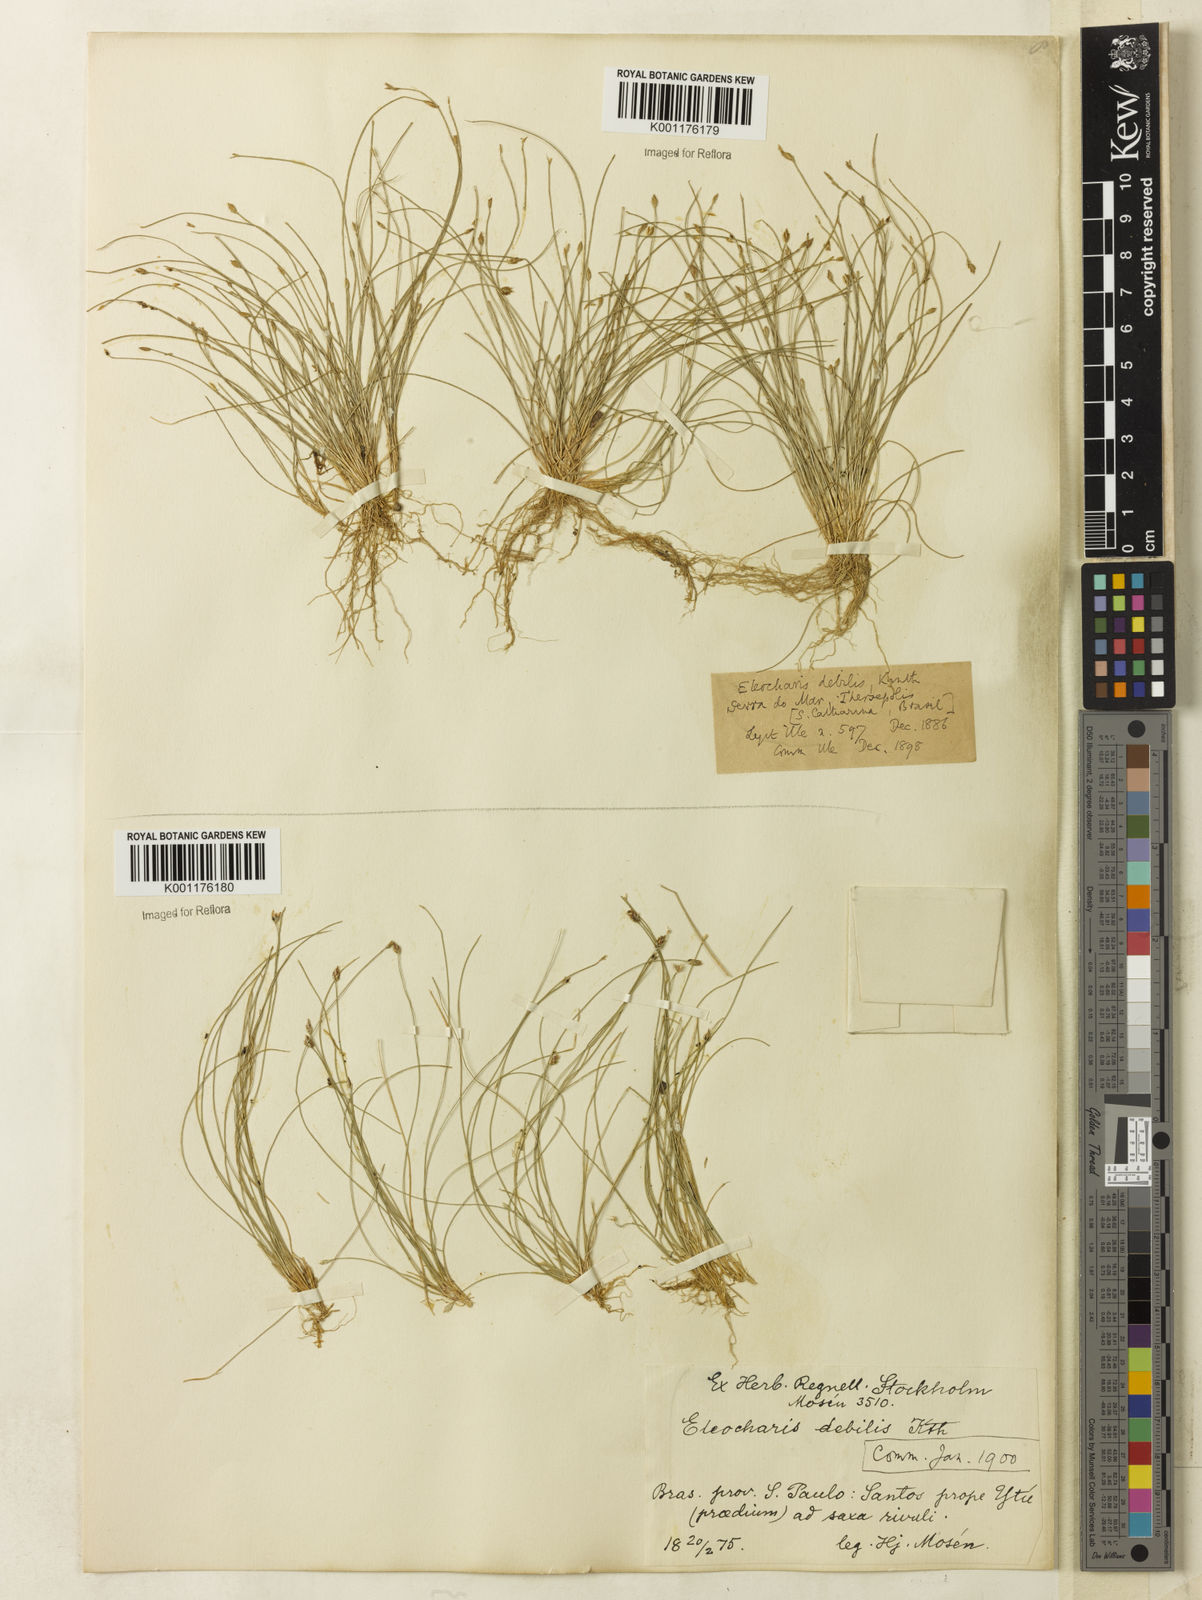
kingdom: Plantae
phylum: Tracheophyta
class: Liliopsida
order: Poales
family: Cyperaceae
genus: Eleocharis
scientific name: Eleocharis maculosa
